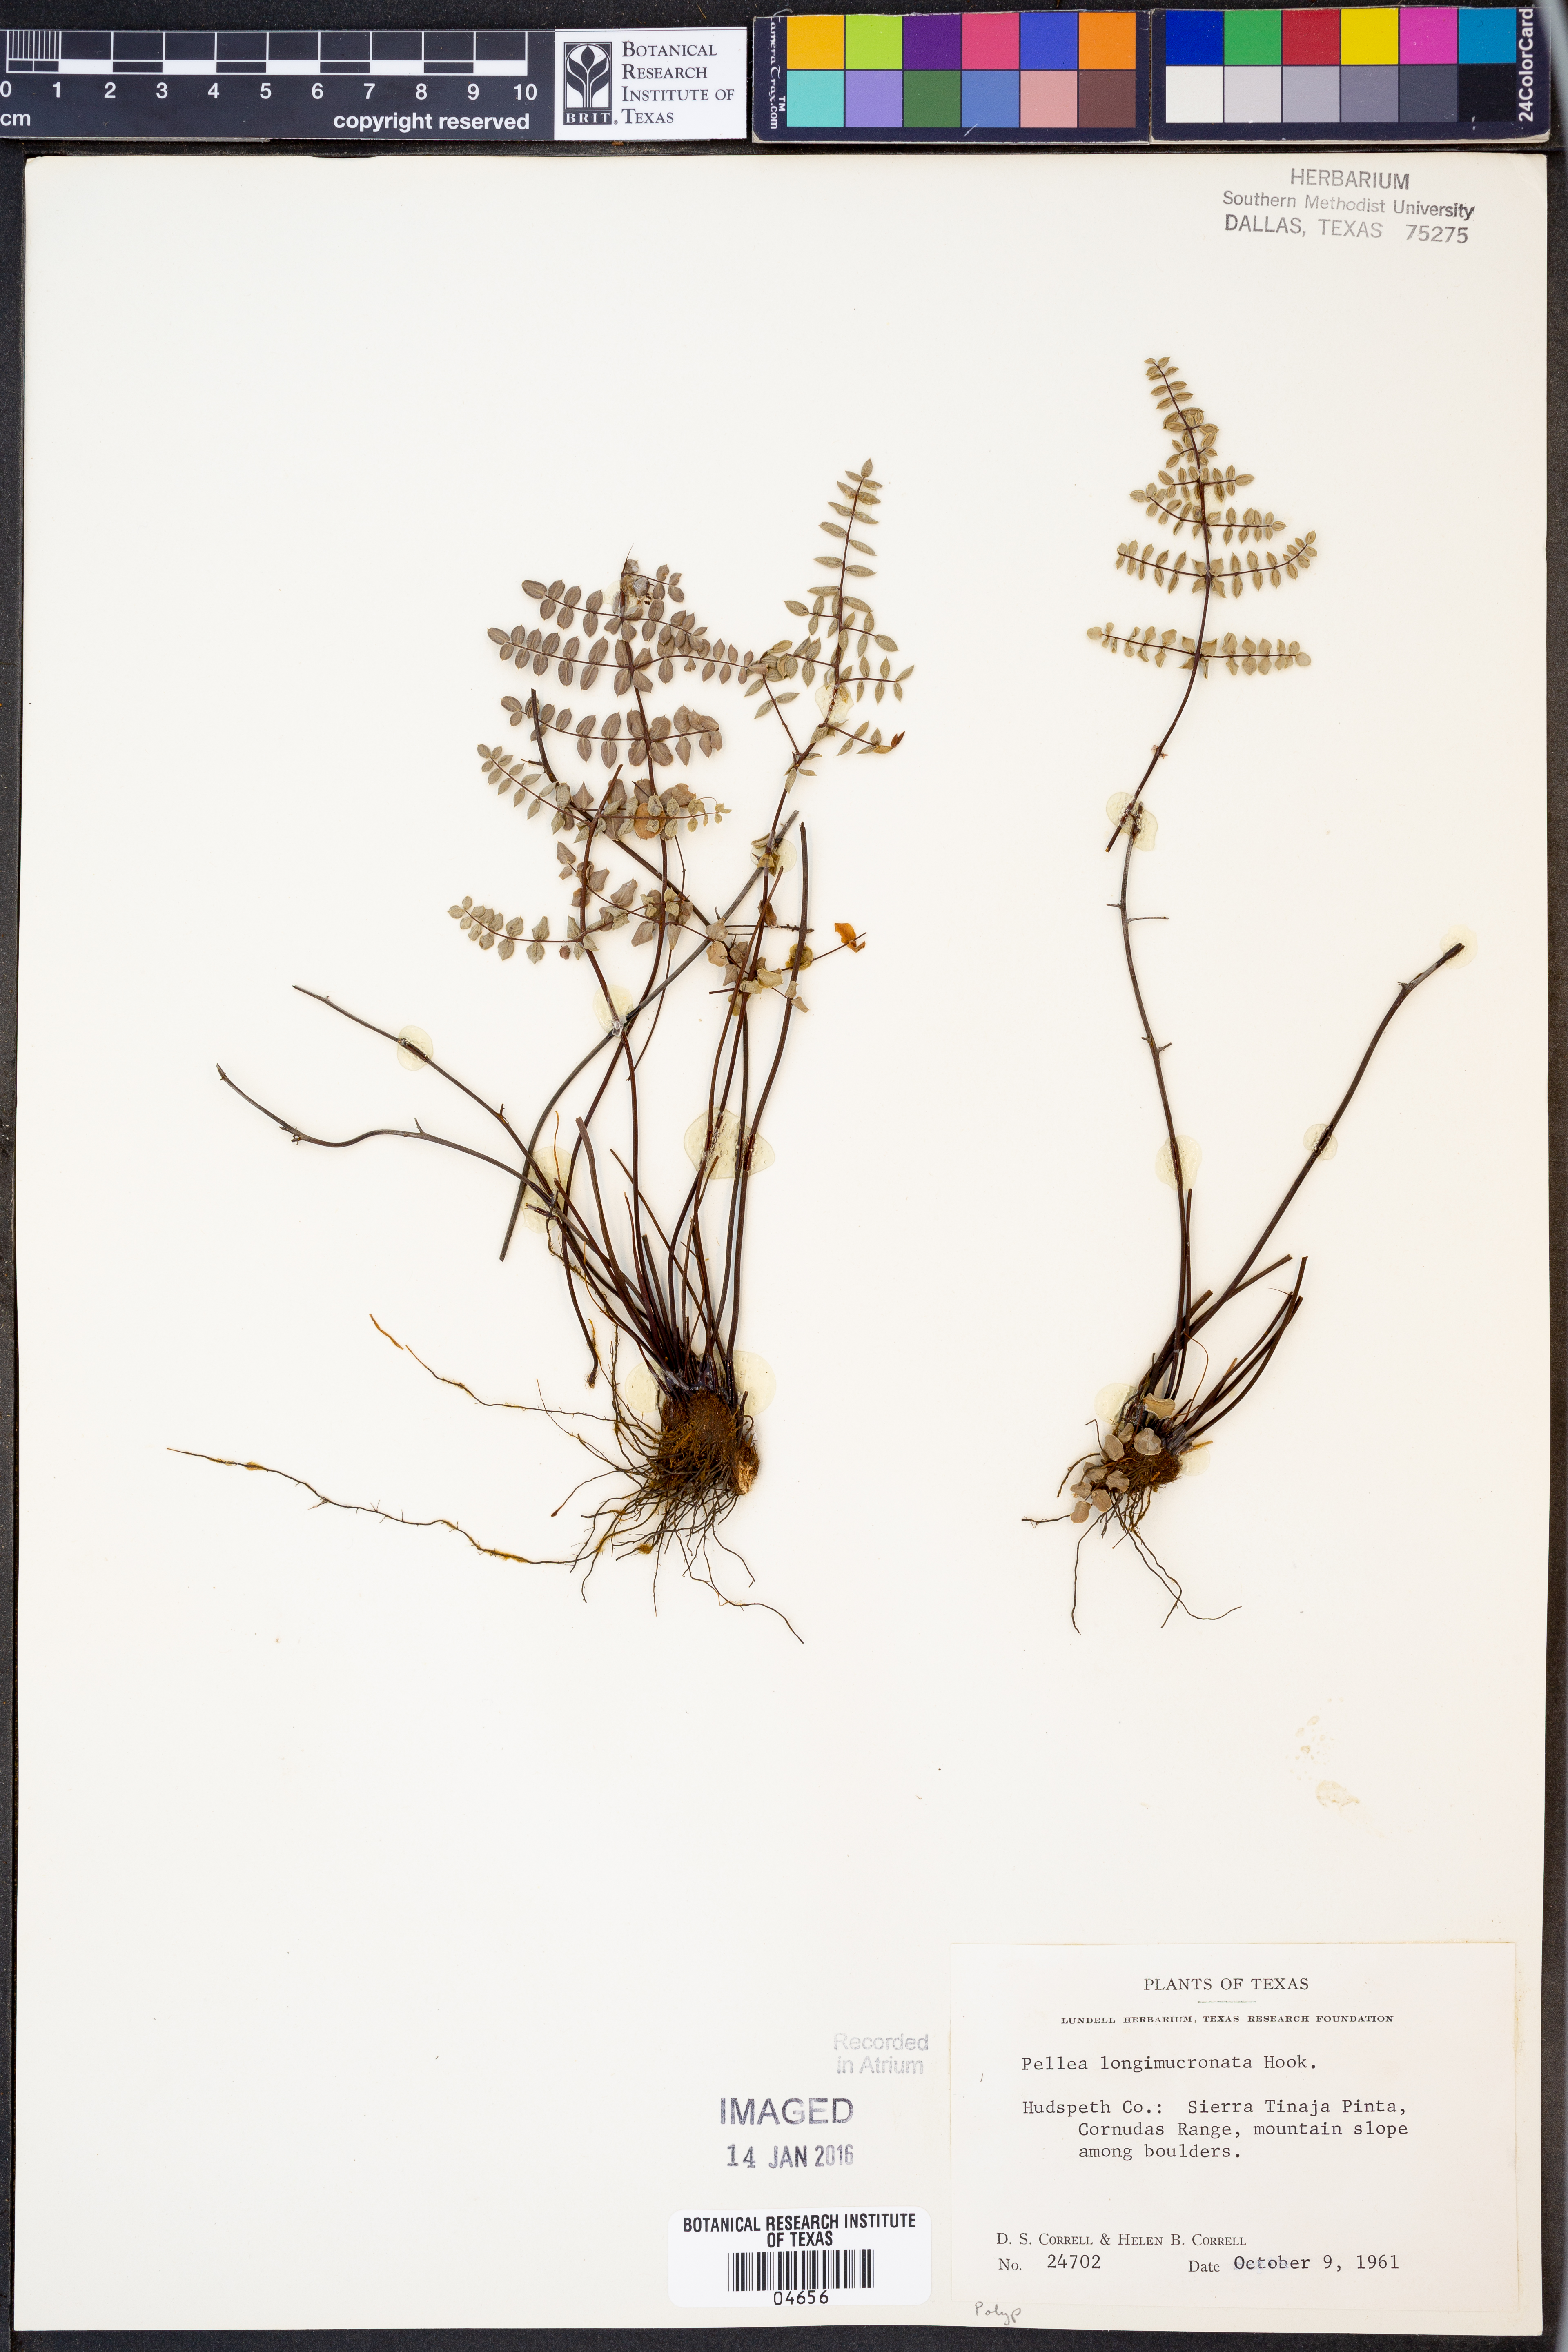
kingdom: Plantae
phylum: Tracheophyta
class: Polypodiopsida
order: Polypodiales
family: Pteridaceae
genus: Pellaea
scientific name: Pellaea mucronata
